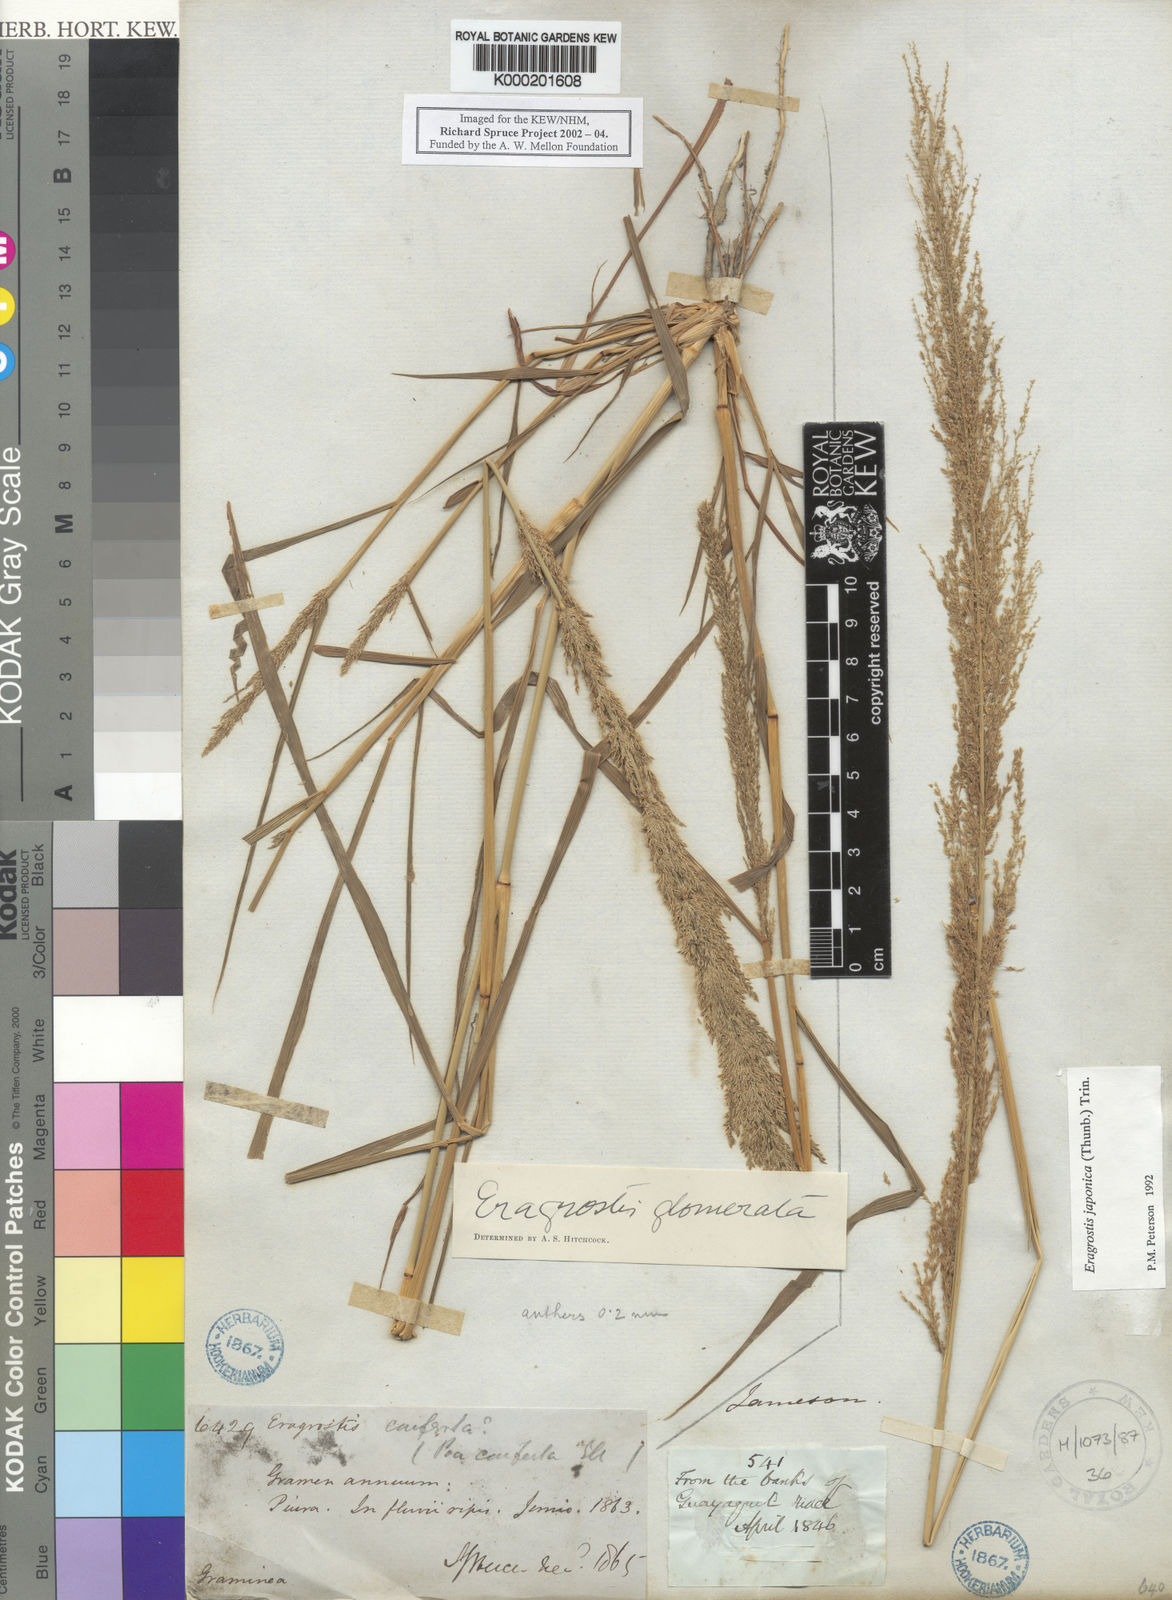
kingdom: Plantae
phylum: Tracheophyta
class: Liliopsida
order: Poales
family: Poaceae
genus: Eragrostis
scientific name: Eragrostis japonica
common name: Pond lovegrass
